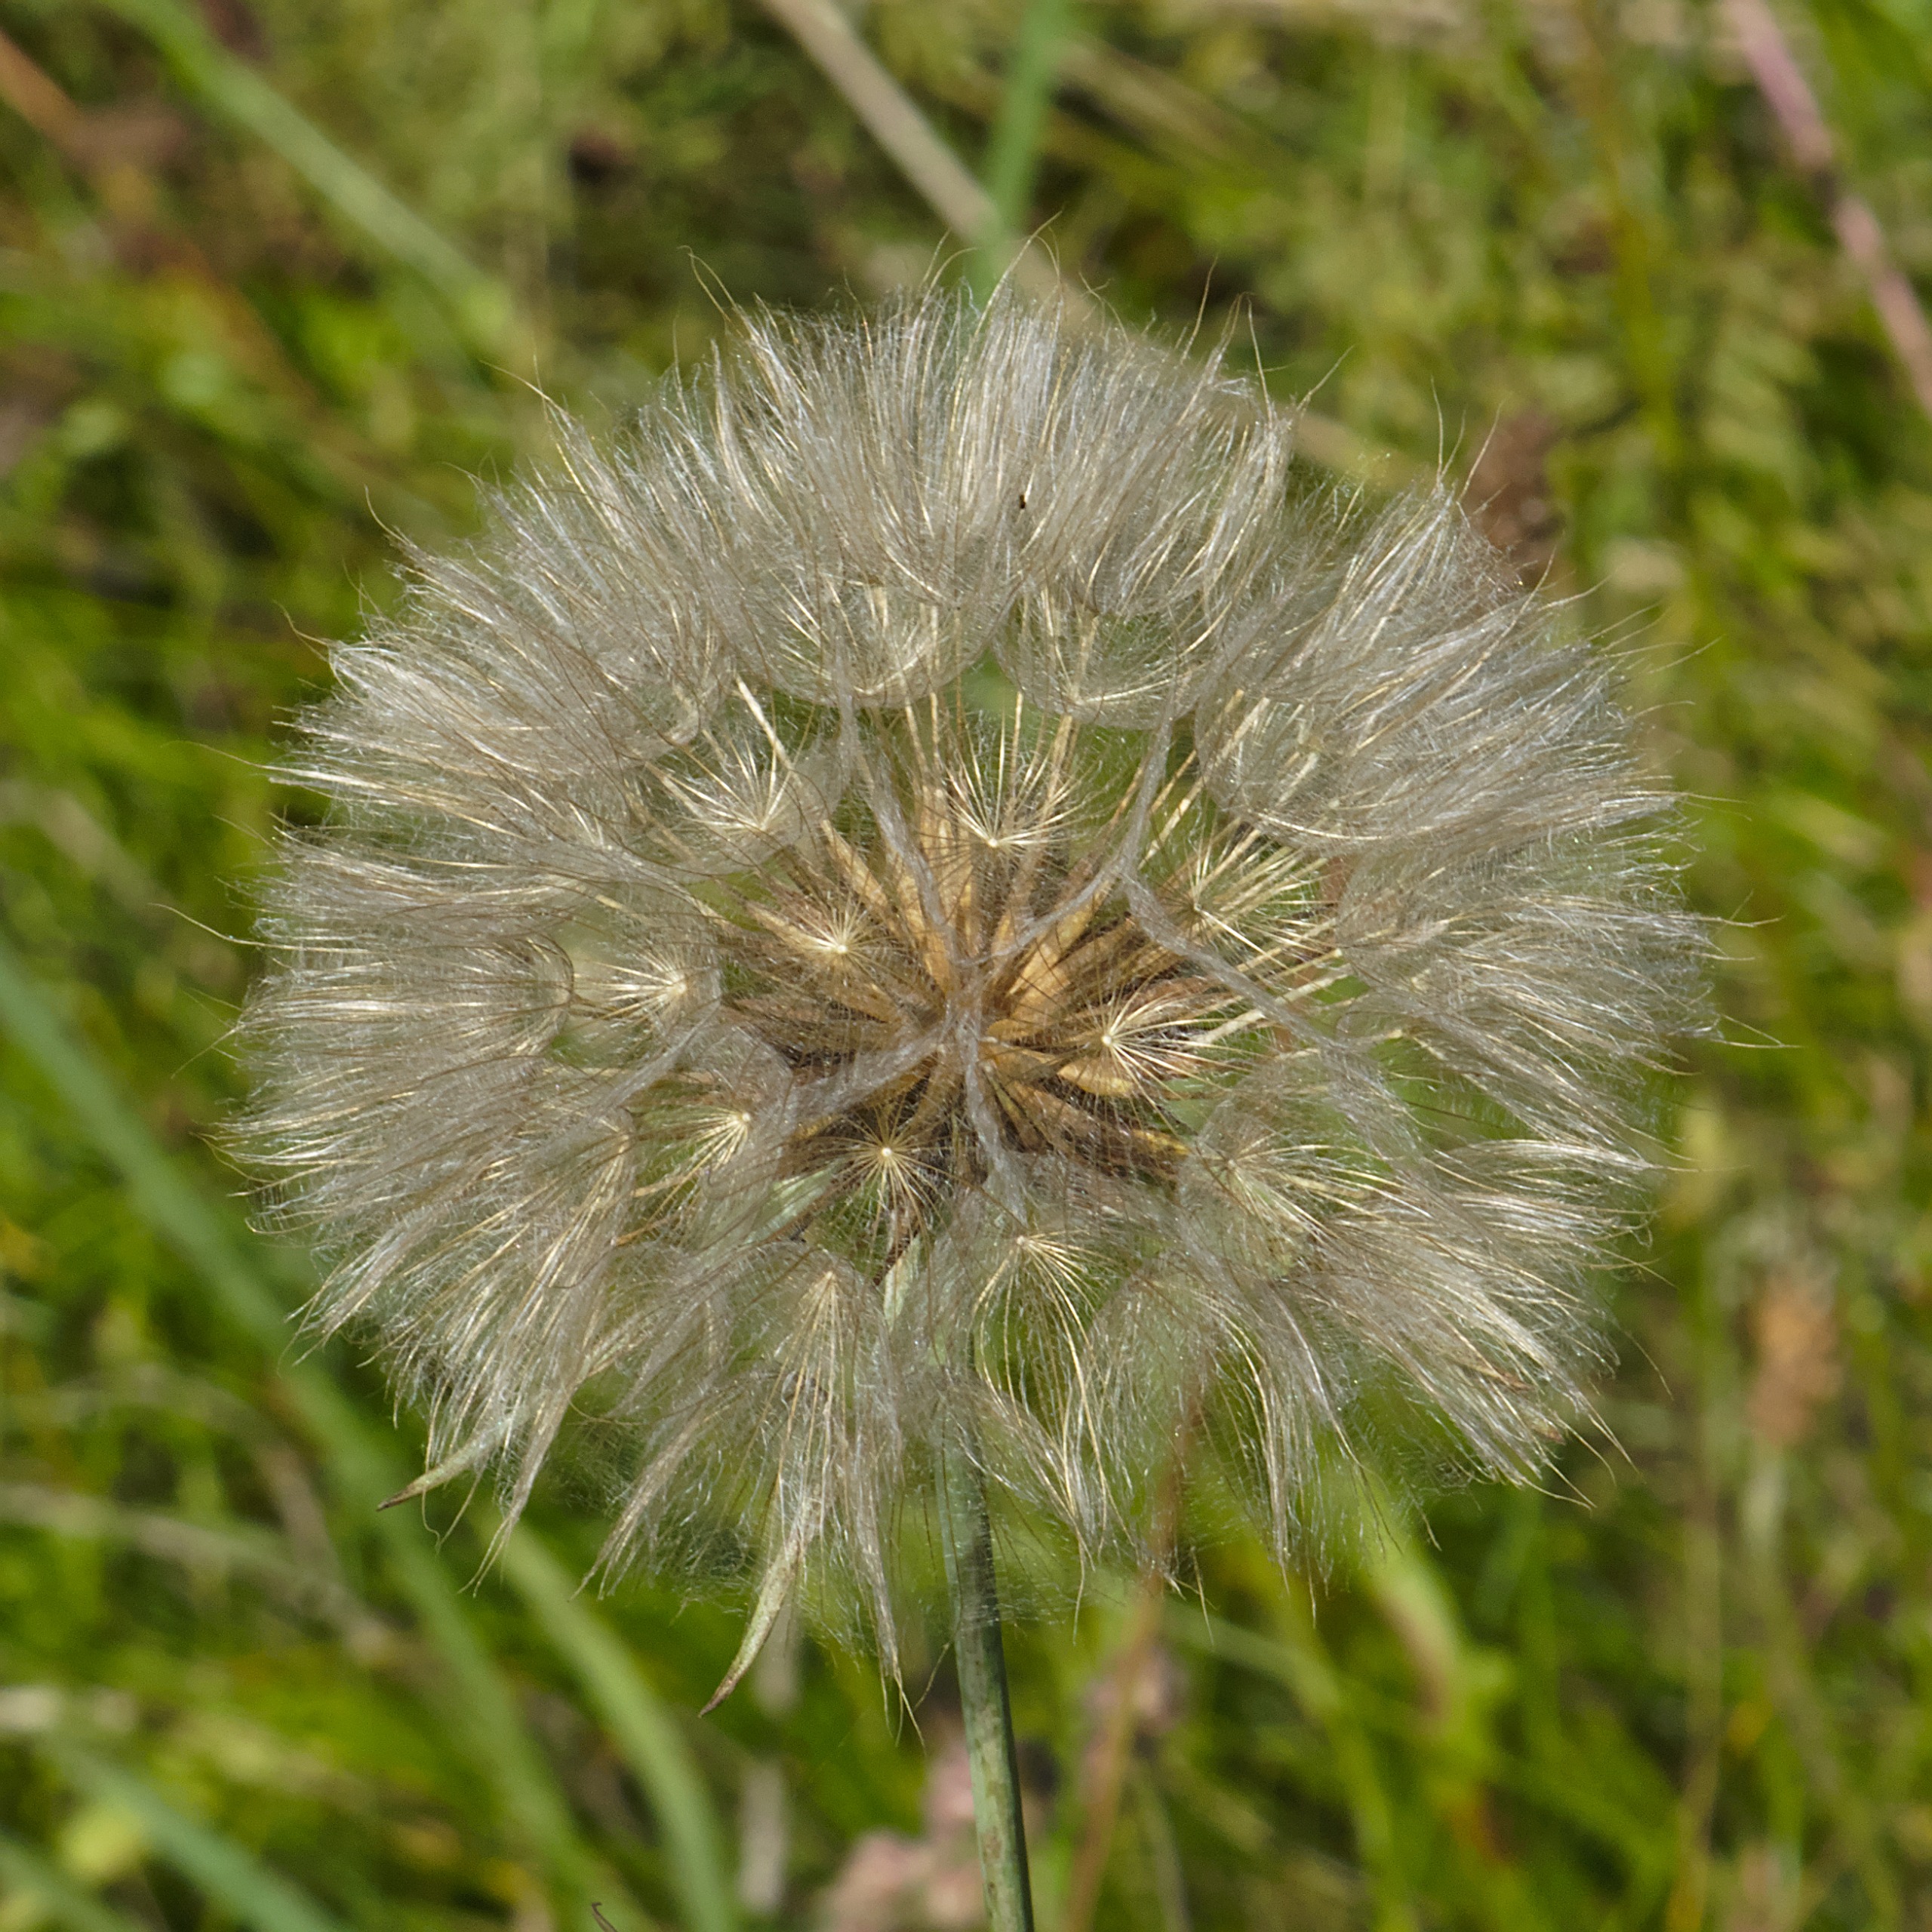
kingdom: Plantae
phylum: Tracheophyta
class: Magnoliopsida
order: Asterales
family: Asteraceae
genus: Tragopogon
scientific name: Tragopogon pratensis
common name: Gedeskæg
